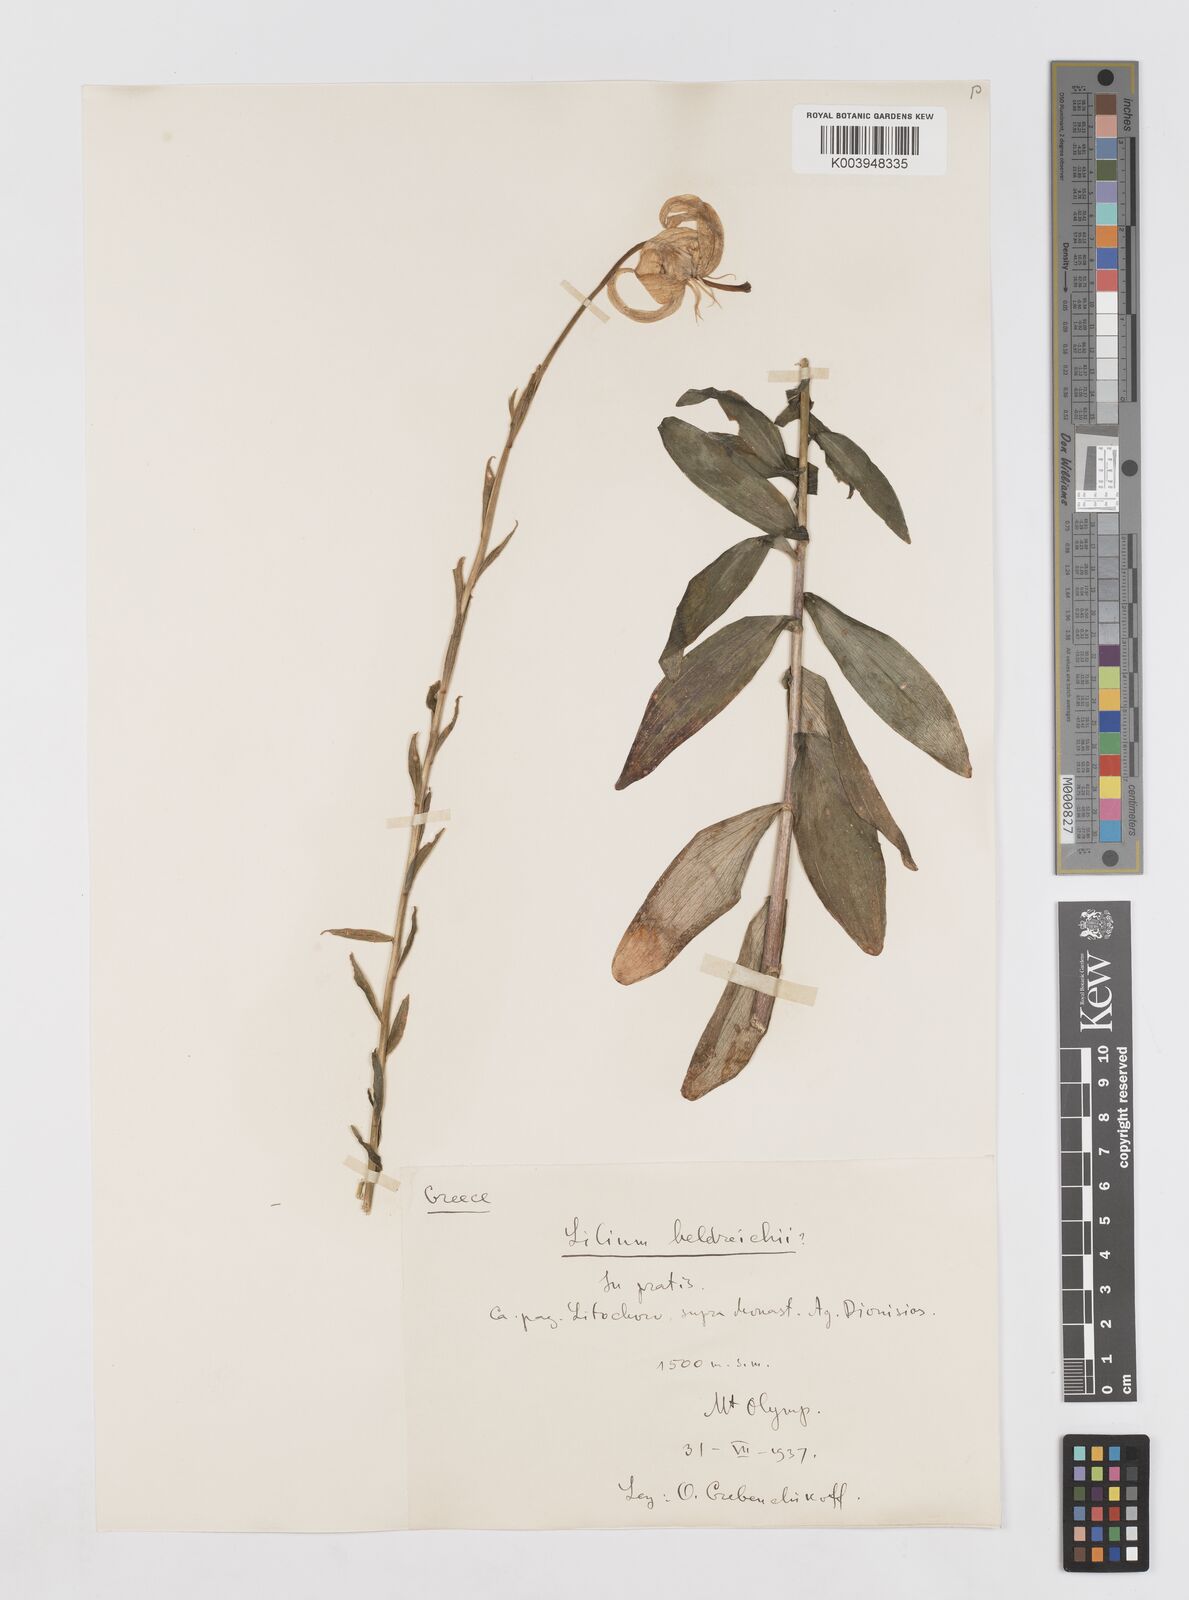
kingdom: Plantae
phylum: Tracheophyta
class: Liliopsida
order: Liliales
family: Liliaceae
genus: Lilium
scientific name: Lilium chalcedonicum
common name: Red martagon of constantinople
